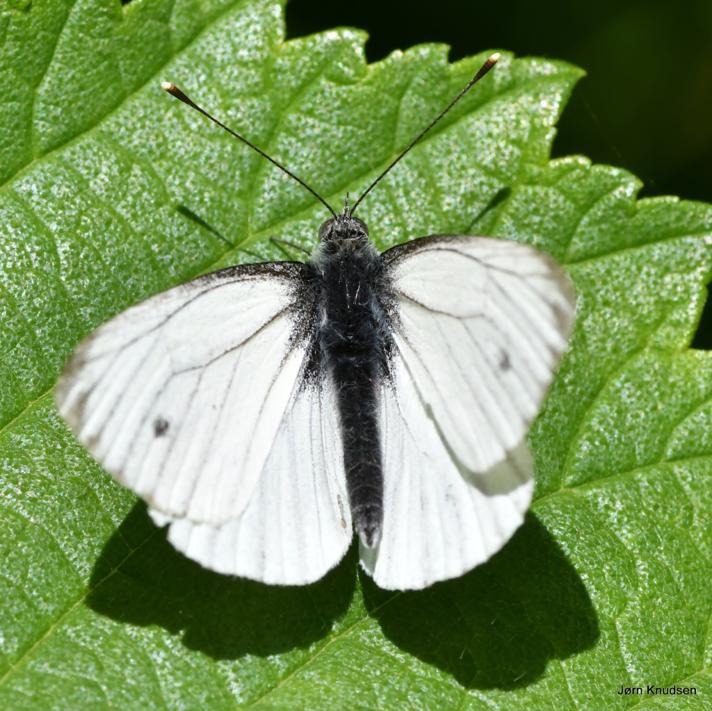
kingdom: Animalia
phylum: Arthropoda
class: Insecta
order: Lepidoptera
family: Pieridae
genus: Pieris
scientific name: Pieris napi
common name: Grønåret kålsommerfugl
